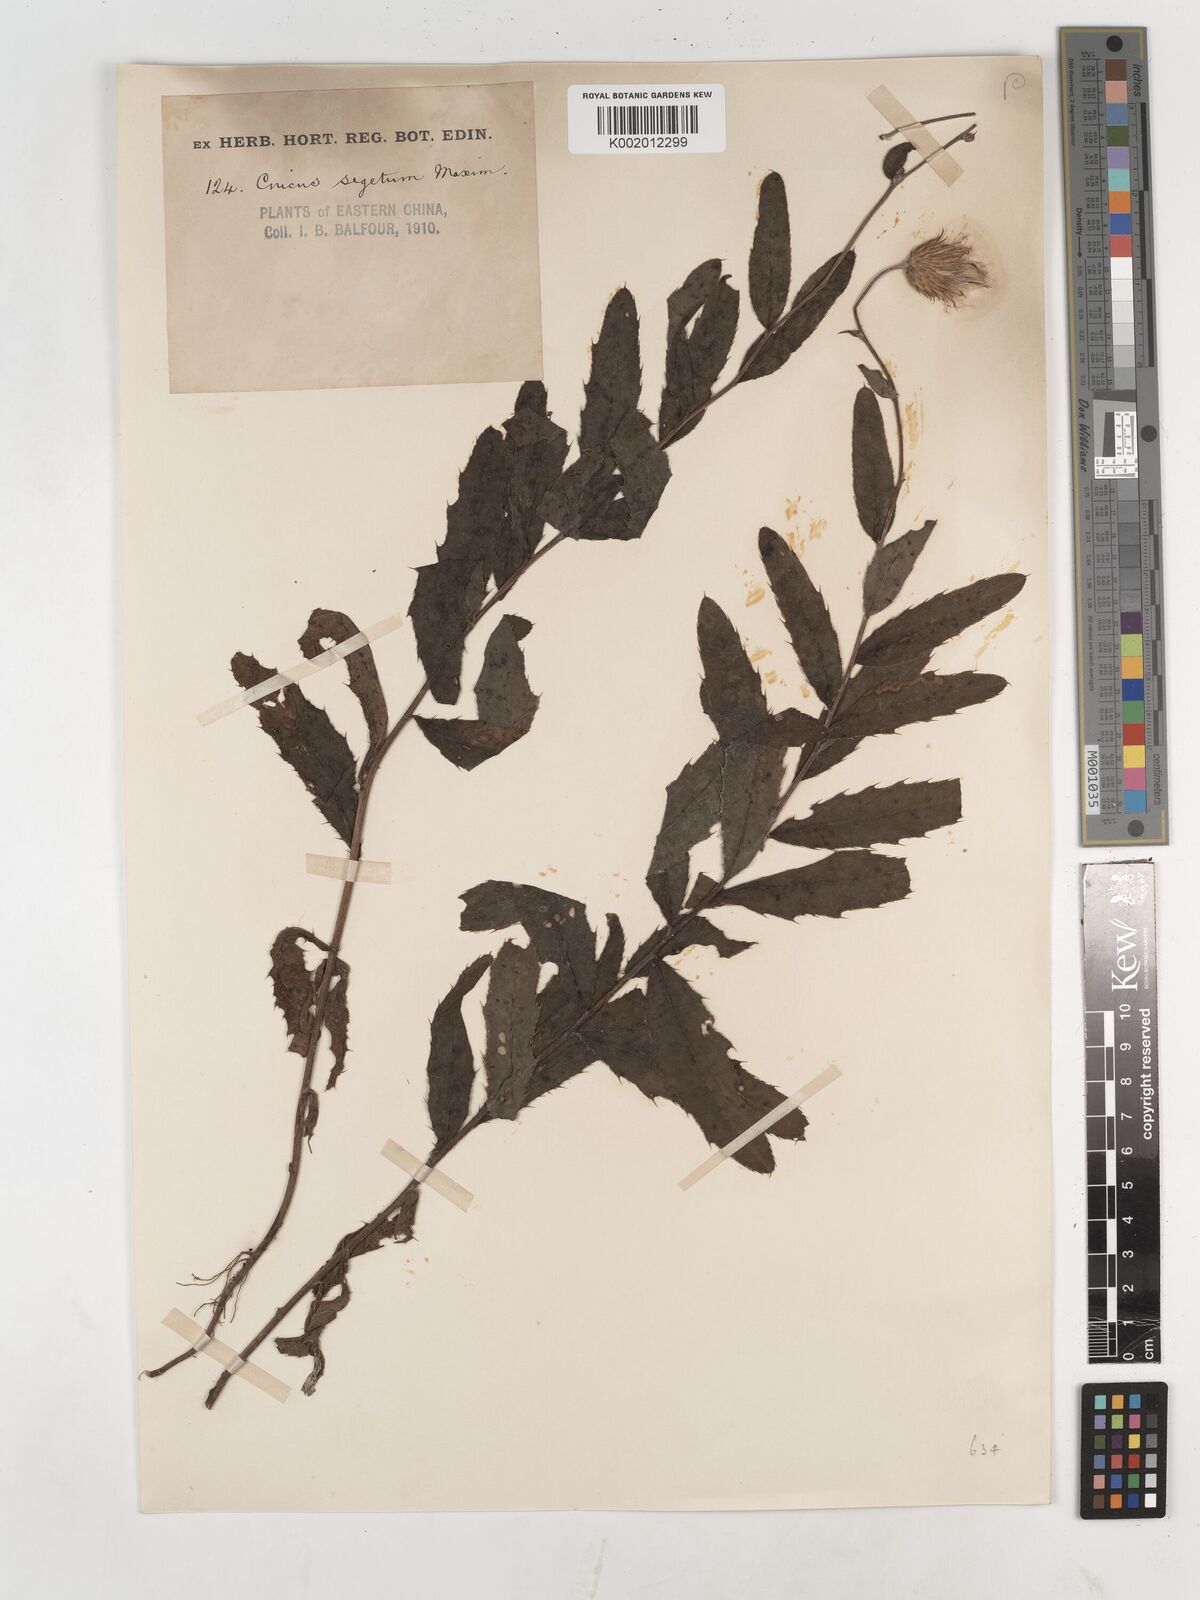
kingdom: Plantae
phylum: Tracheophyta
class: Magnoliopsida
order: Asterales
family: Asteraceae
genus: Cirsium
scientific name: Cirsium arvense
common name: Creeping thistle
